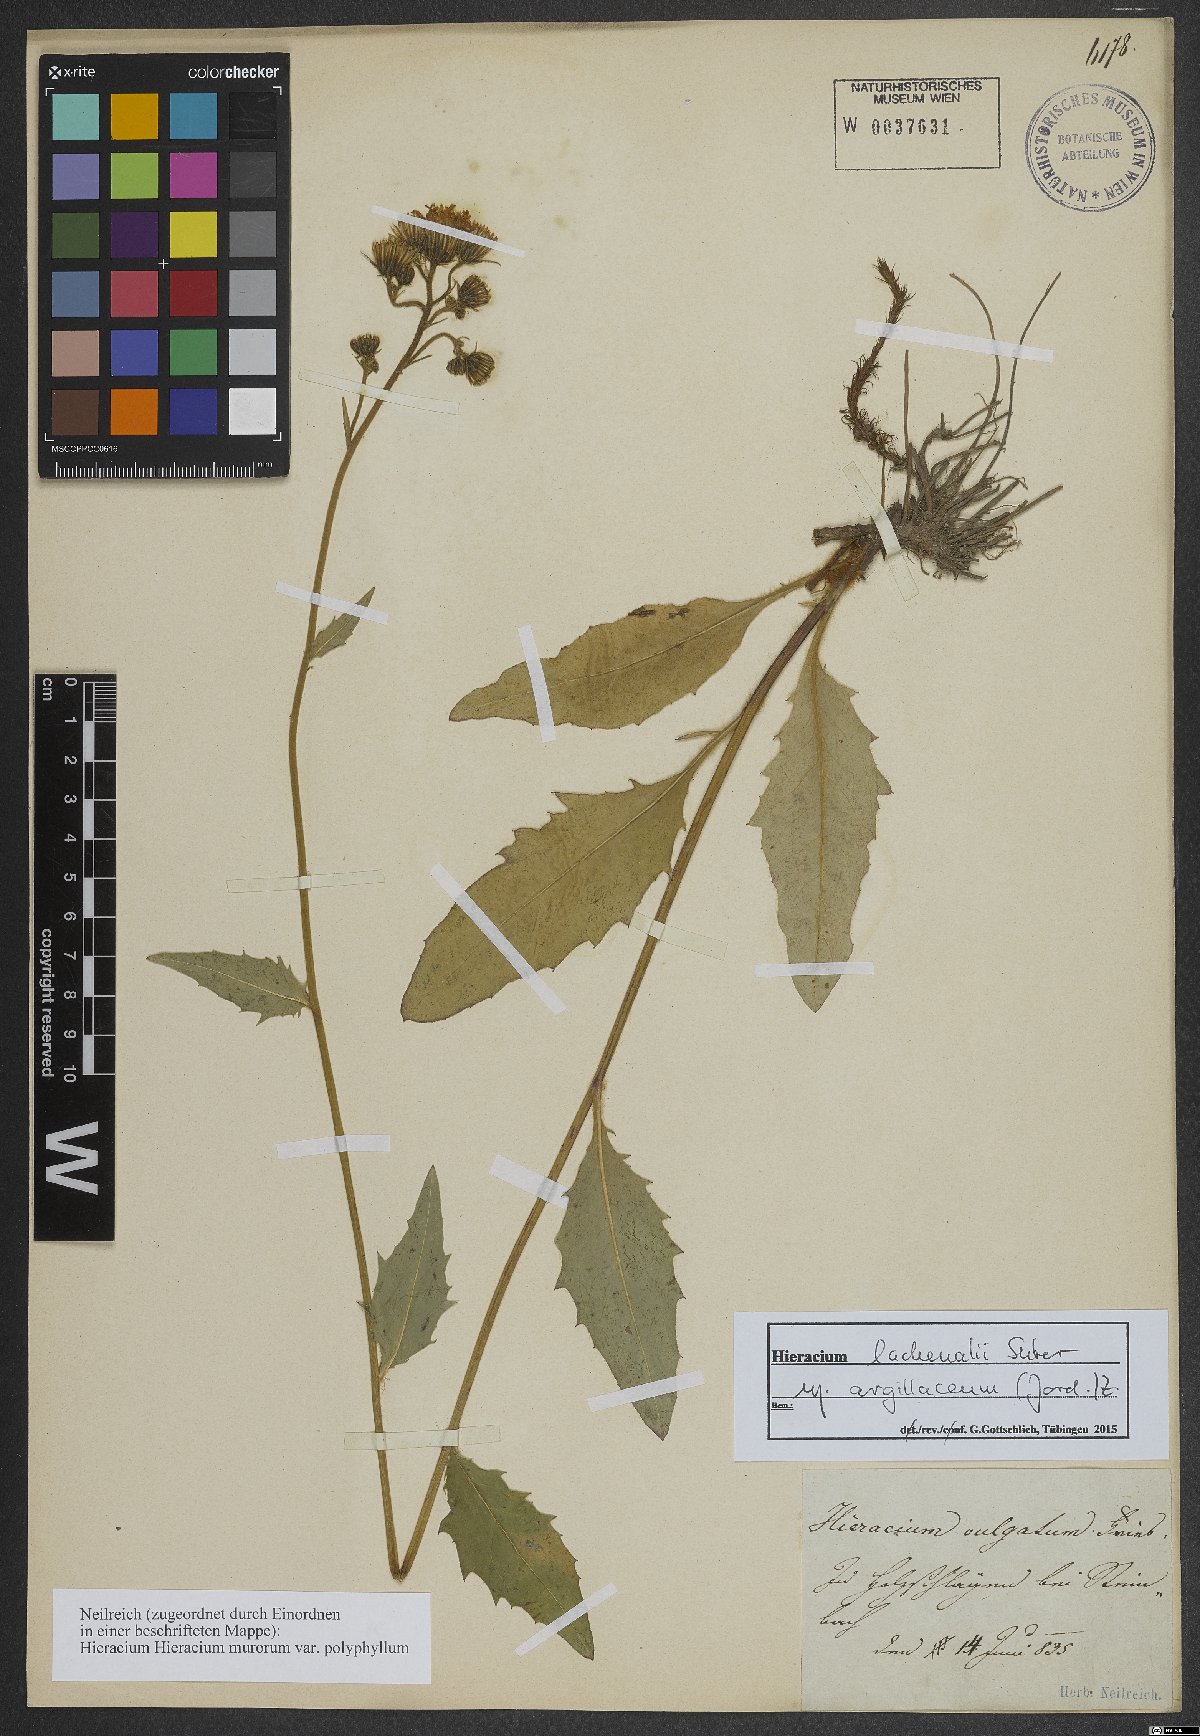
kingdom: Plantae
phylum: Tracheophyta
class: Magnoliopsida
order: Asterales
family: Asteraceae
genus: Hieracium
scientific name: Hieracium lachenalii
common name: Common hawkweed
